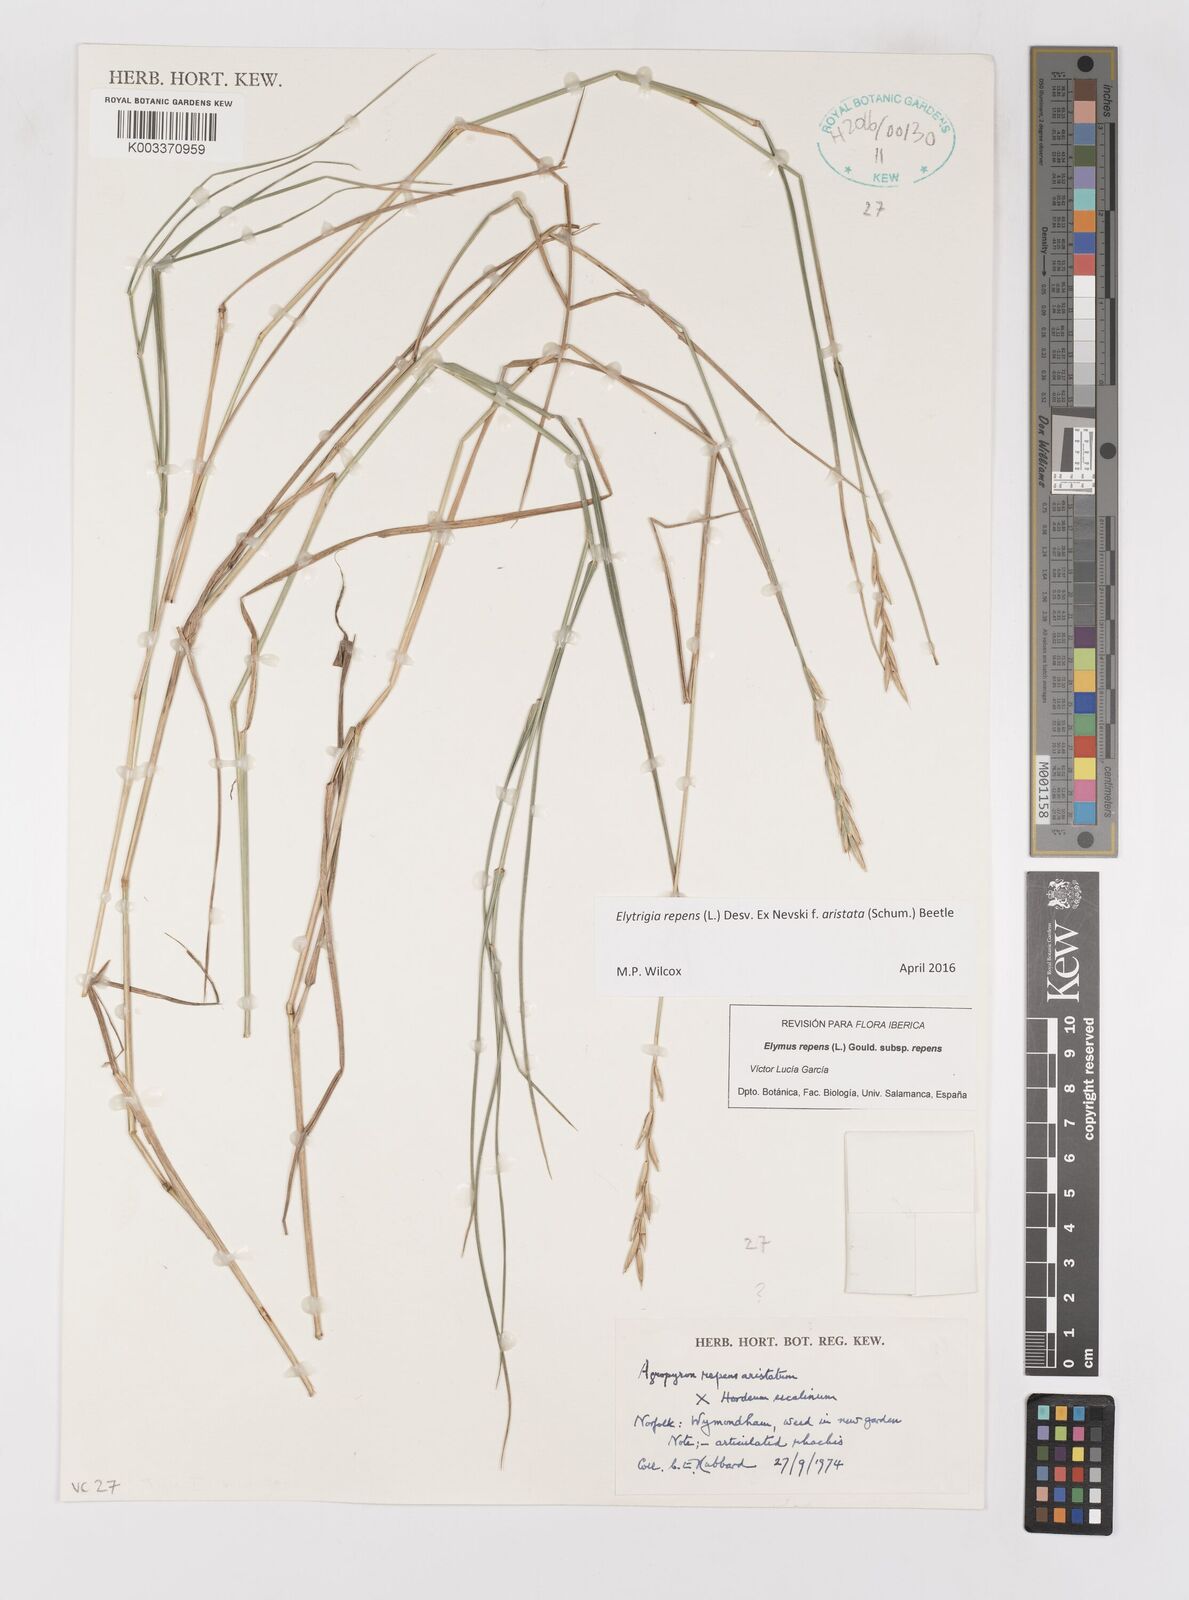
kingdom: Plantae
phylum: Tracheophyta
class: Liliopsida
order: Poales
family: Poaceae
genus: Elymus
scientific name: Elymus repens
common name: Quackgrass
